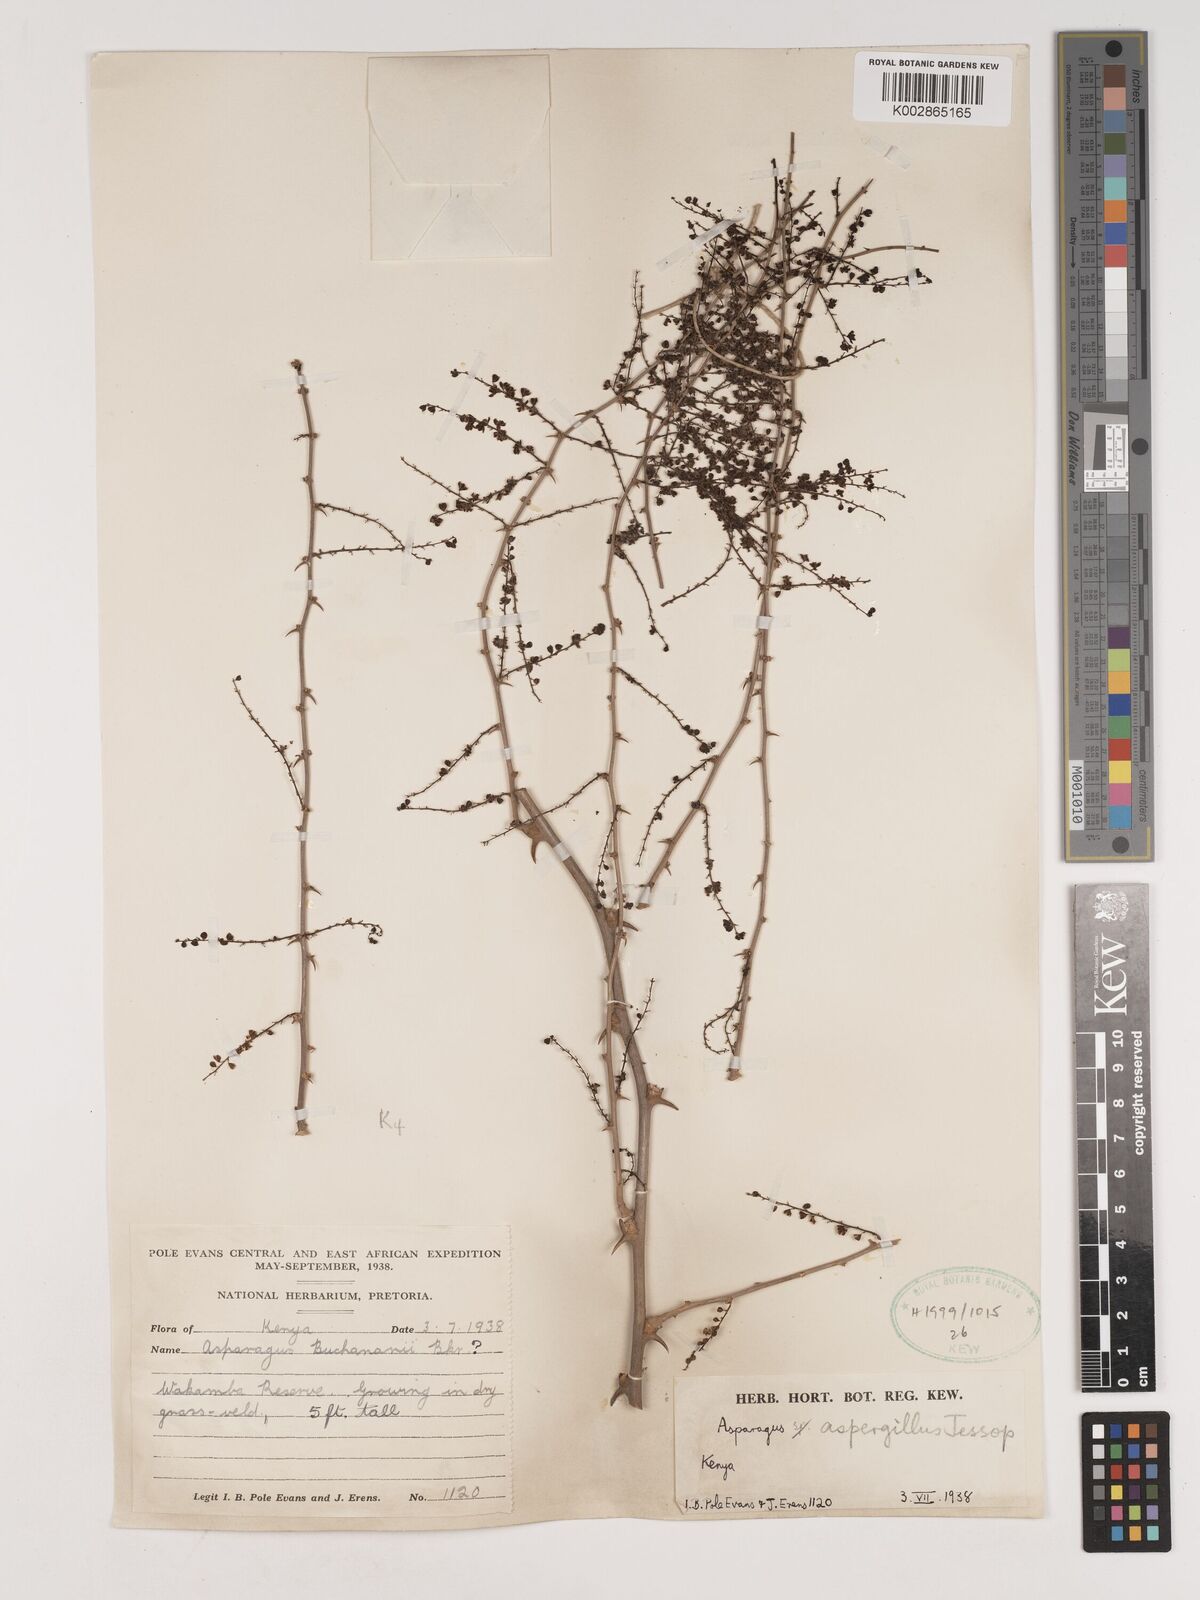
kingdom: Plantae
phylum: Tracheophyta
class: Liliopsida
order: Asparagales
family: Asparagaceae
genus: Asparagus
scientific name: Asparagus aspergillus
